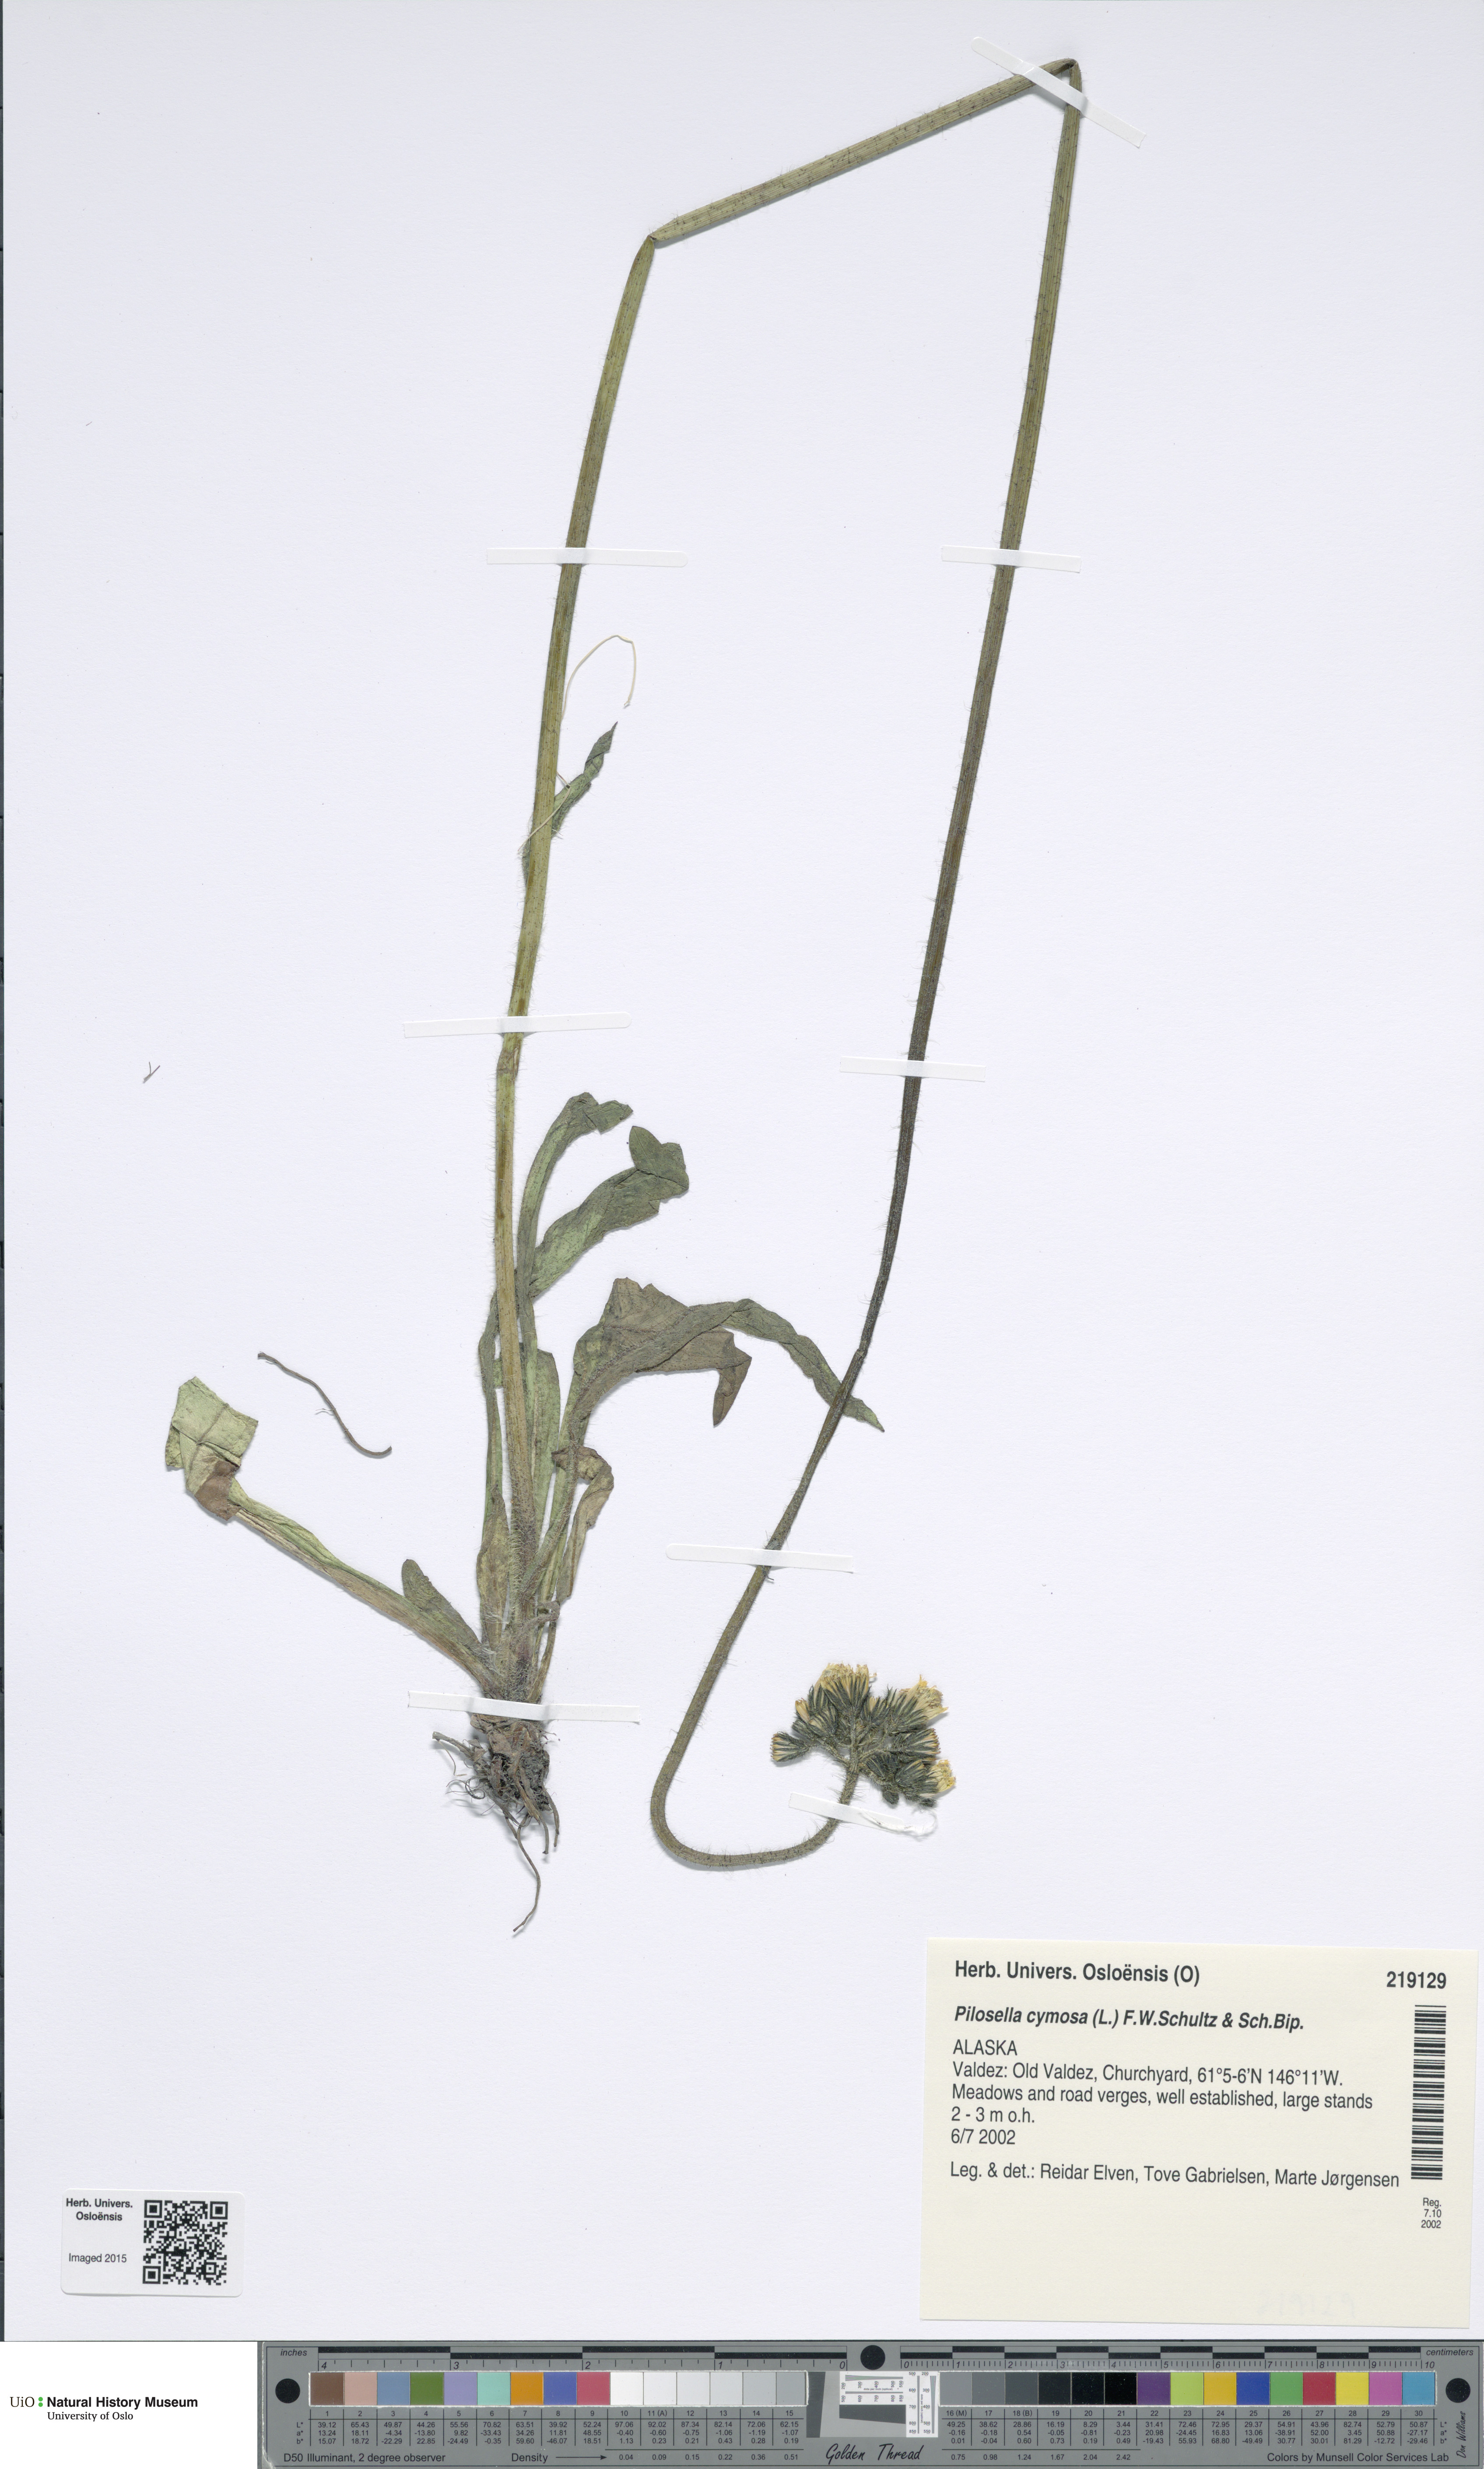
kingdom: Plantae
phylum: Tracheophyta
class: Magnoliopsida
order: Asterales
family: Asteraceae
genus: Pilosella
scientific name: Pilosella cymosa
